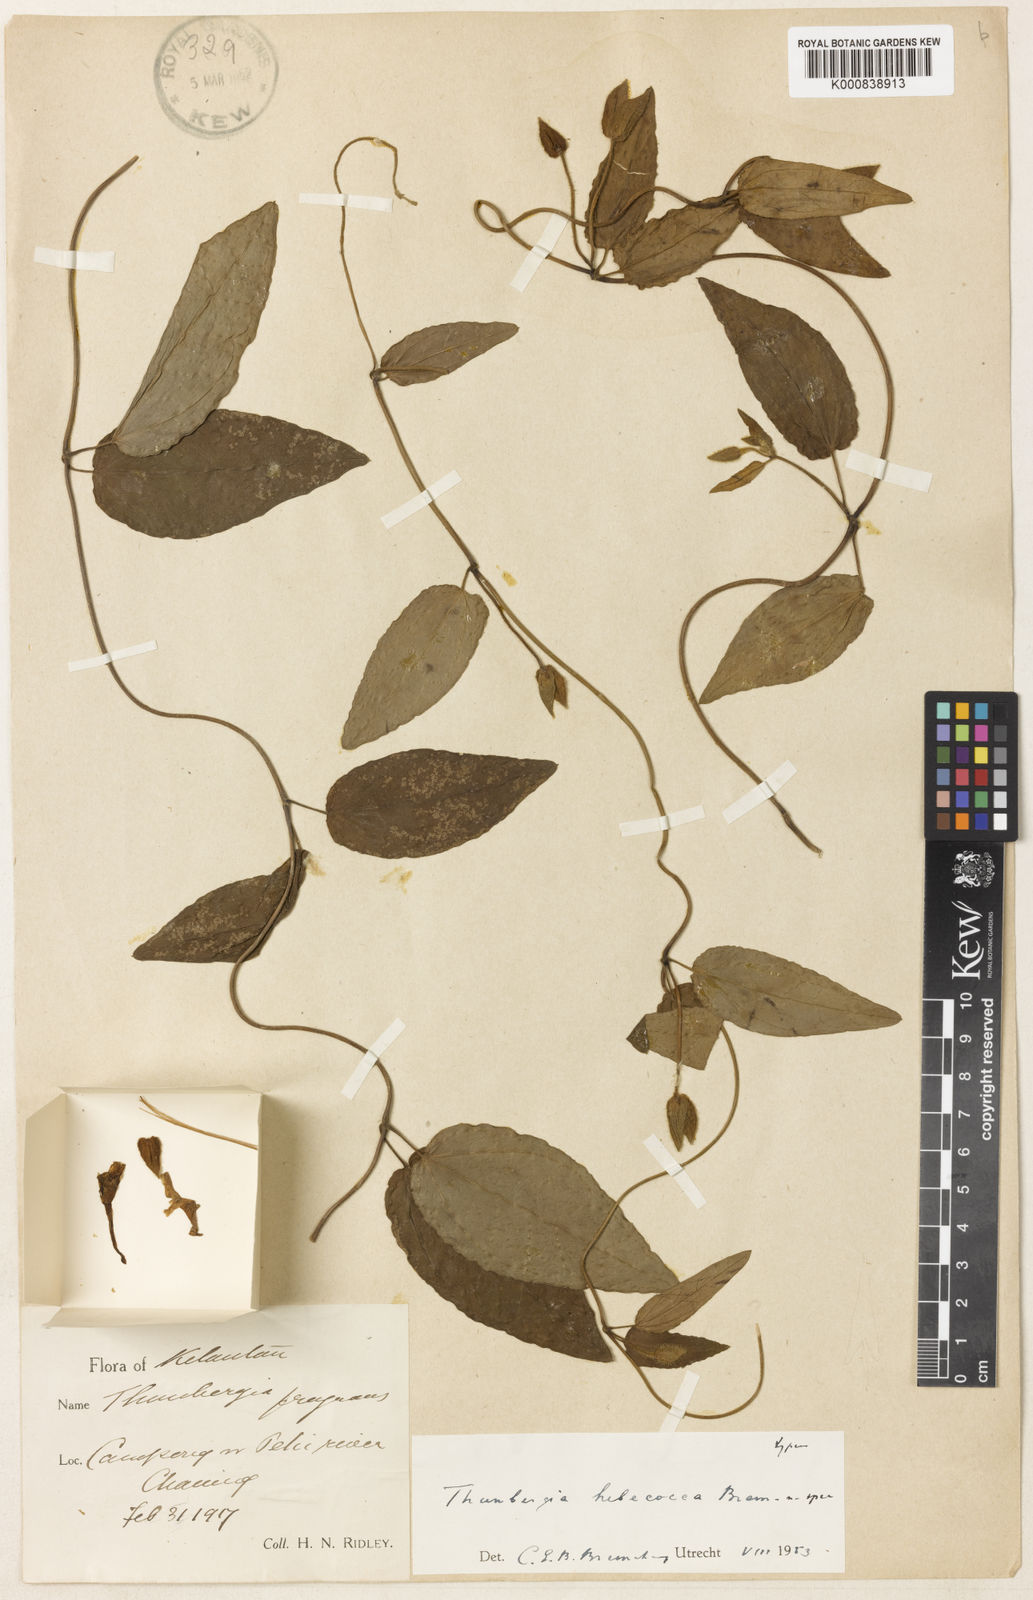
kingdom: Plantae
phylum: Tracheophyta
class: Magnoliopsida
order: Lamiales
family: Acanthaceae
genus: Thunbergia
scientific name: Thunbergia hebecocca
